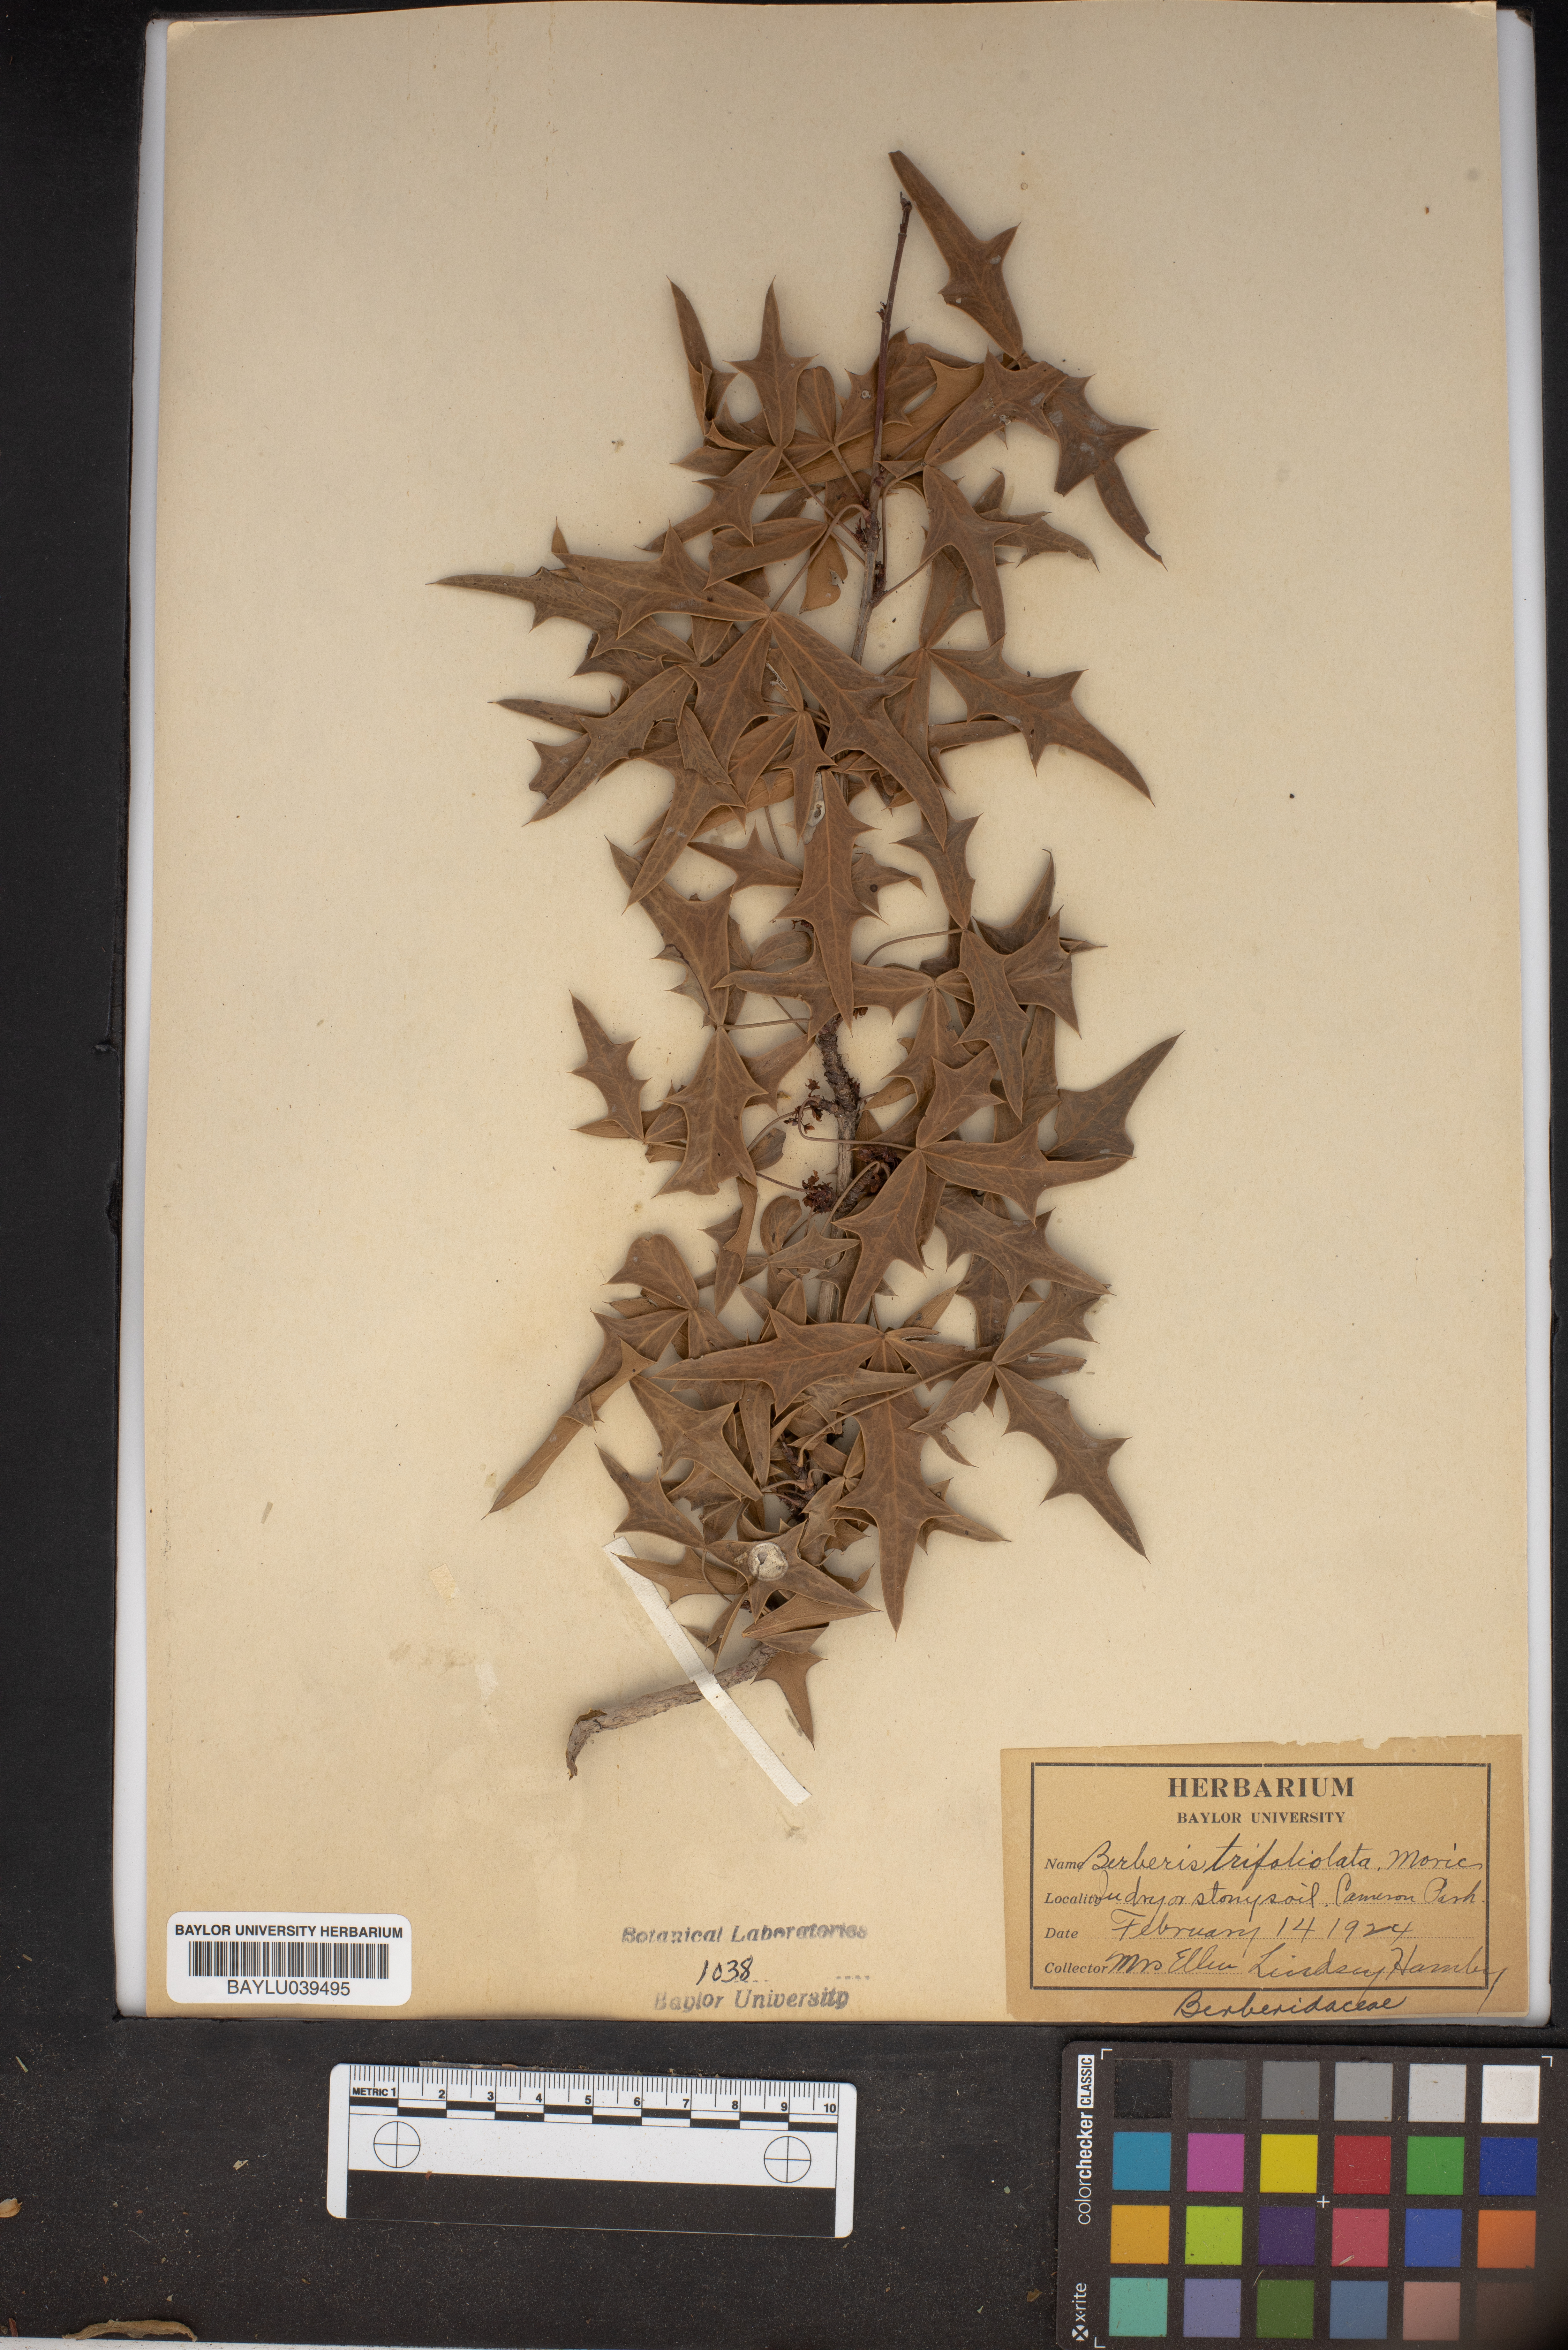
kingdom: Plantae
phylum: Tracheophyta
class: Magnoliopsida
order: Ranunculales
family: Berberidaceae
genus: Alloberberis
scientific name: Alloberberis trifoliolata
